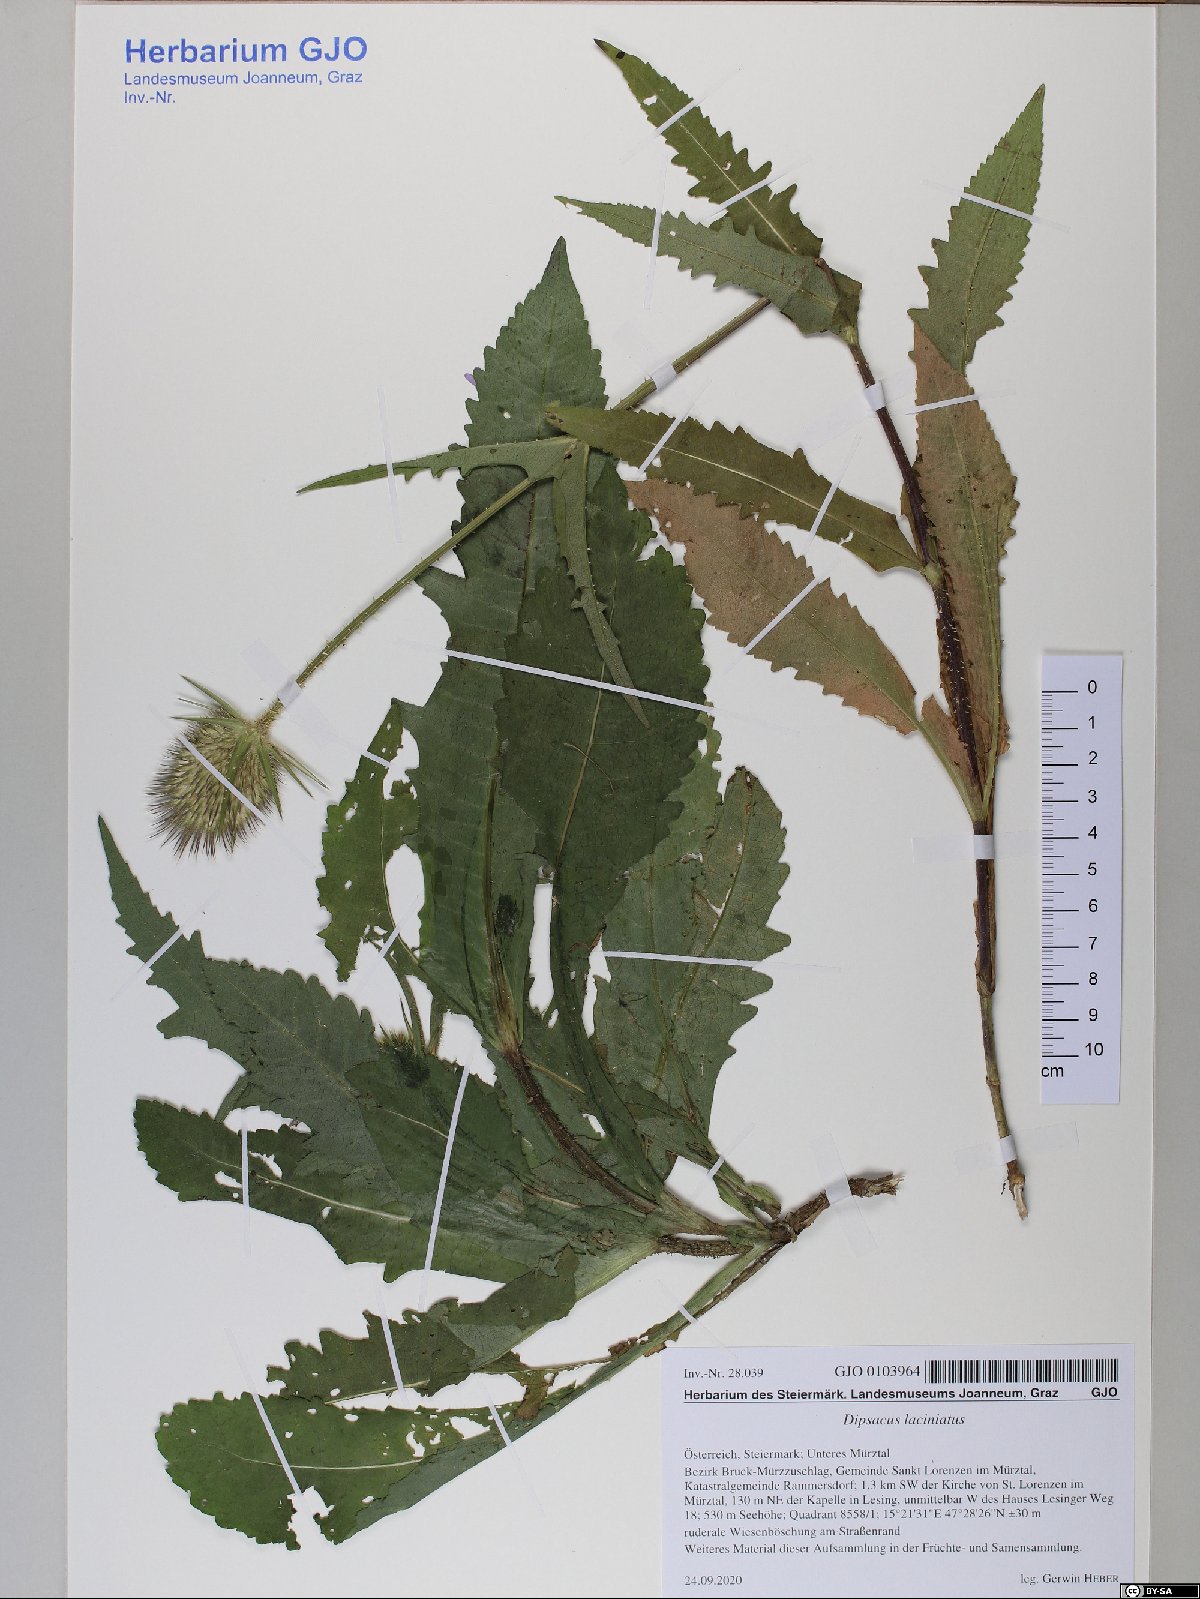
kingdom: Plantae
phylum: Tracheophyta
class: Magnoliopsida
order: Dipsacales
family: Caprifoliaceae
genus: Dipsacus
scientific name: Dipsacus laciniatus
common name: Cut-leaved teasel
